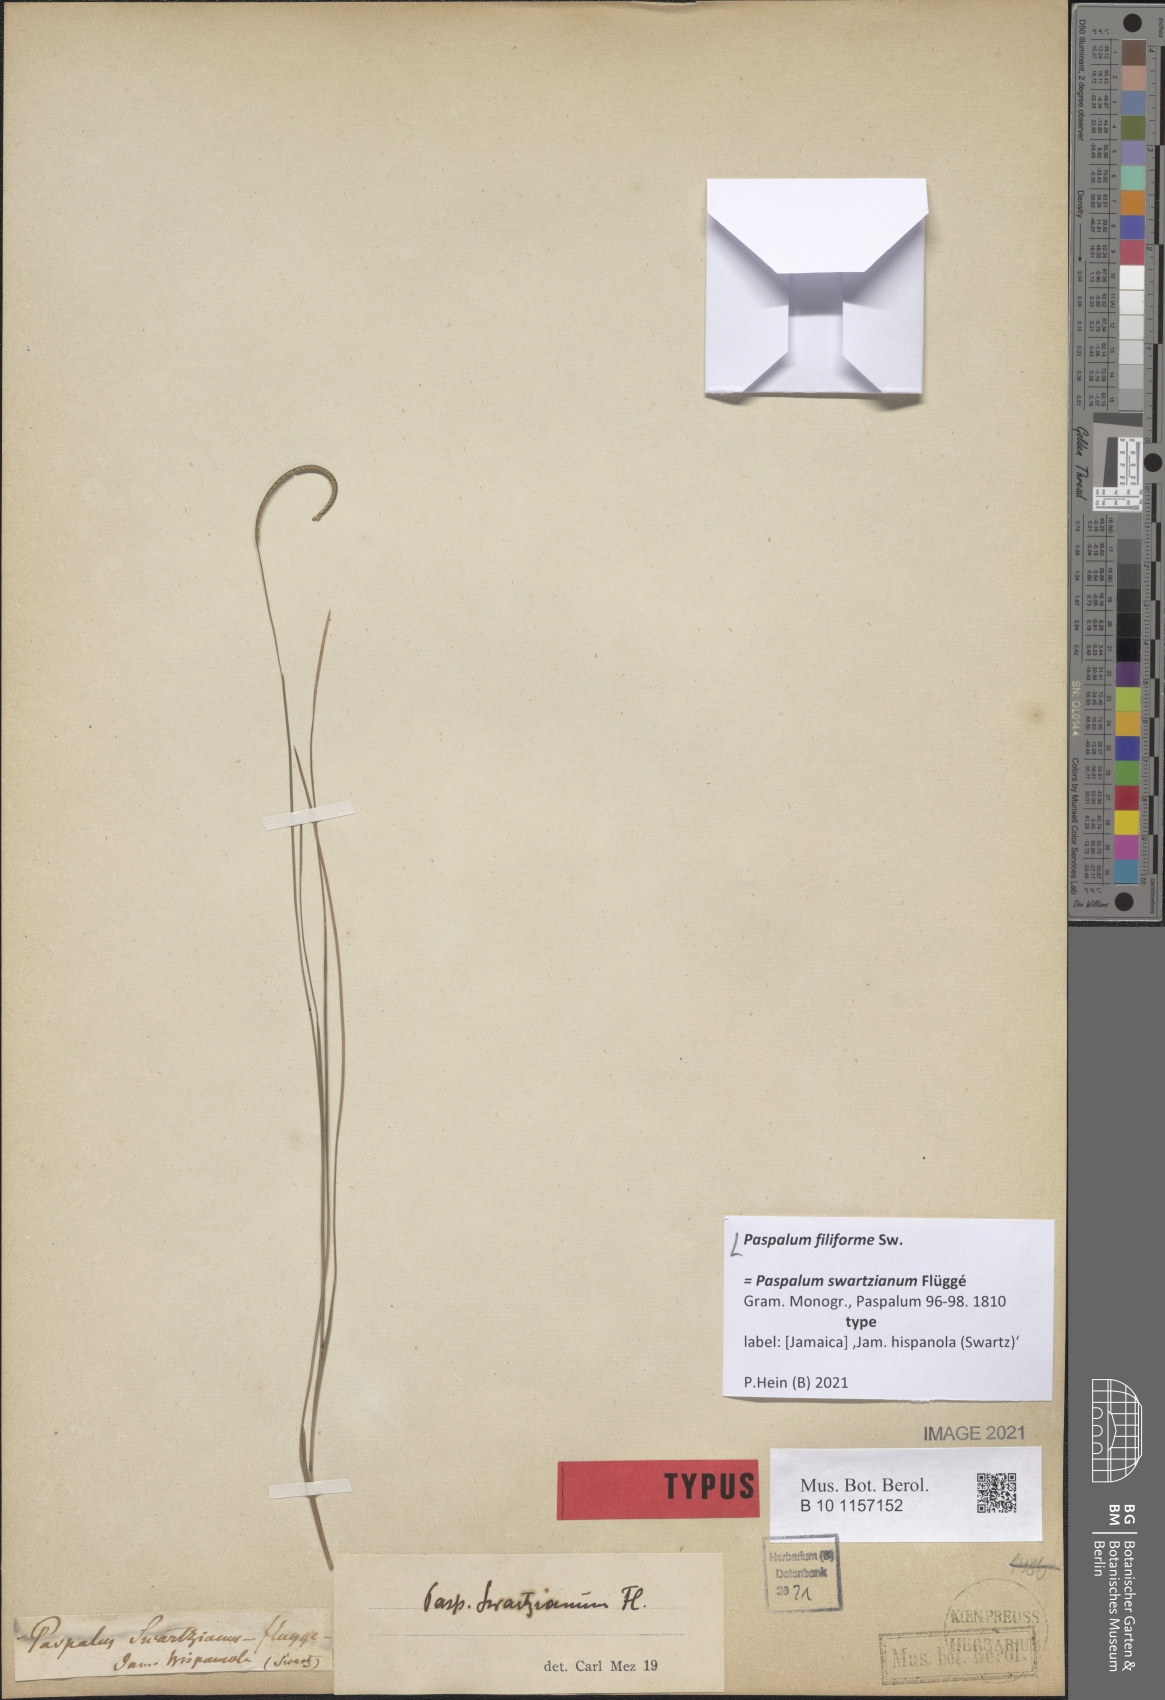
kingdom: Plantae
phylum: Tracheophyta
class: Liliopsida
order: Poales
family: Poaceae
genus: Paspalum
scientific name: Paspalum filiforme
